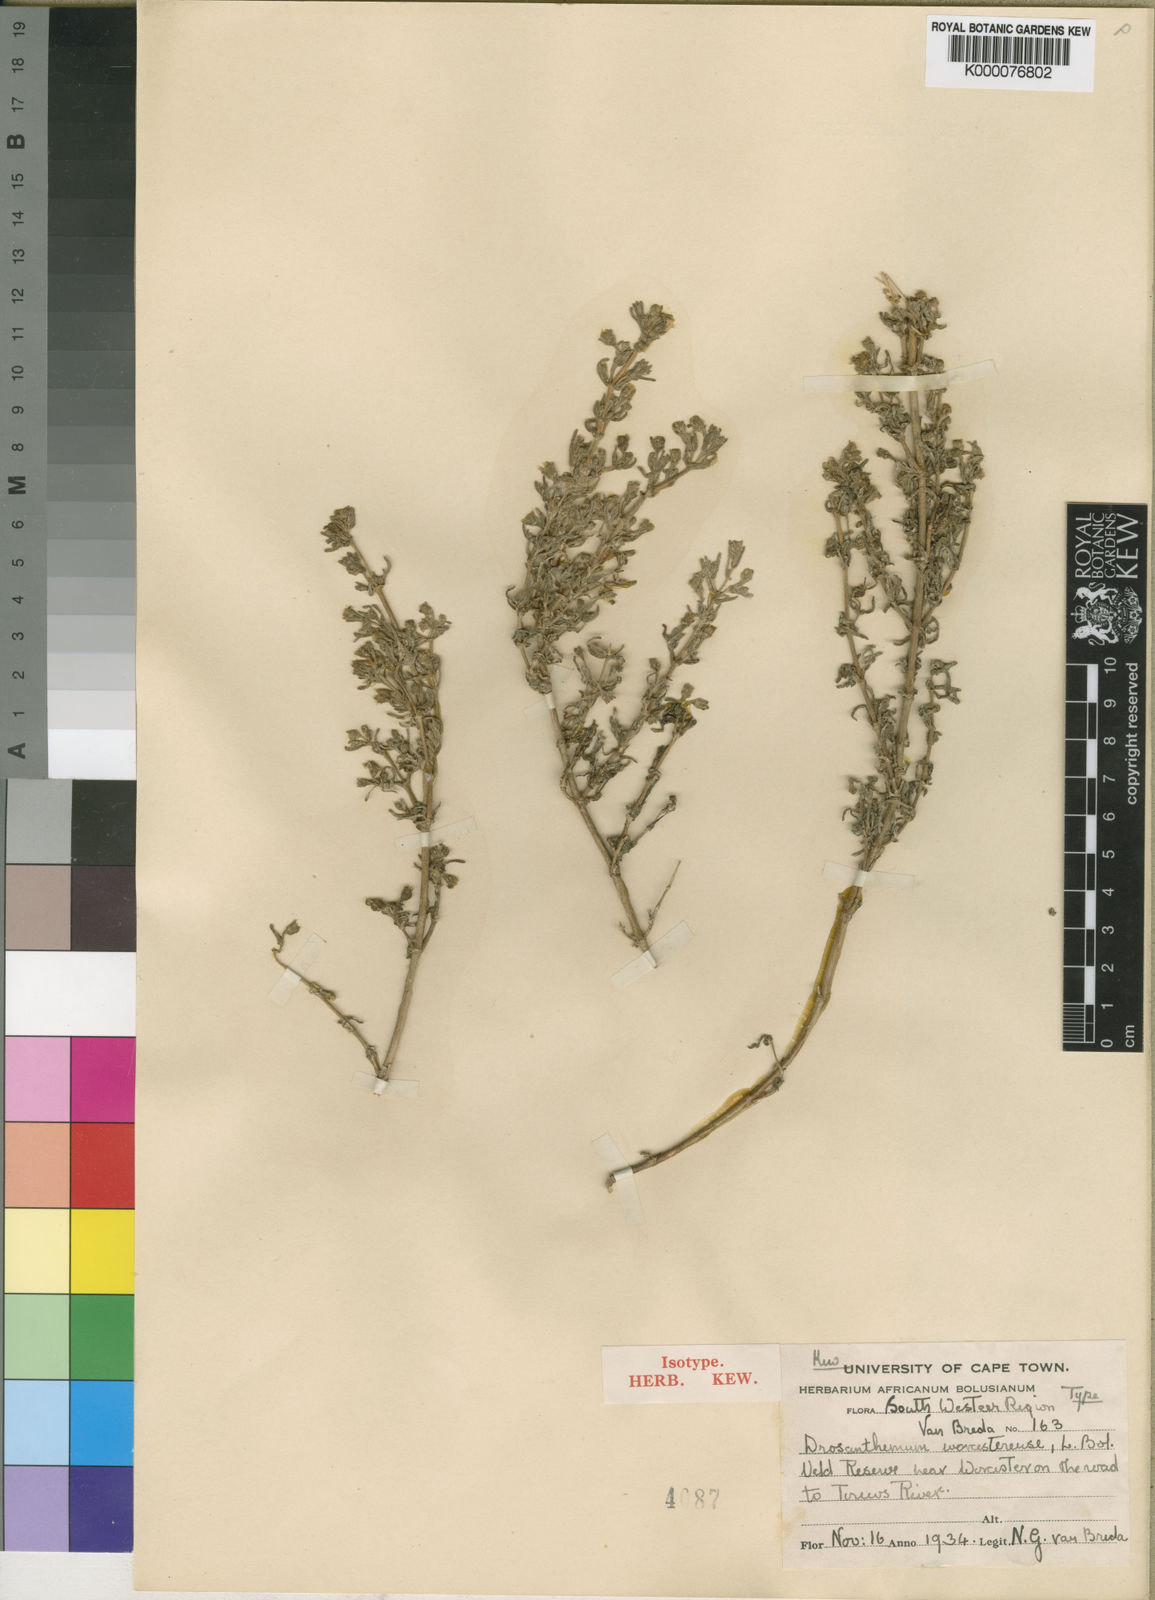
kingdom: Plantae
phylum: Tracheophyta
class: Magnoliopsida
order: Caryophyllales
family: Aizoaceae
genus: Drosanthemum
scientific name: Drosanthemum worcesterense
